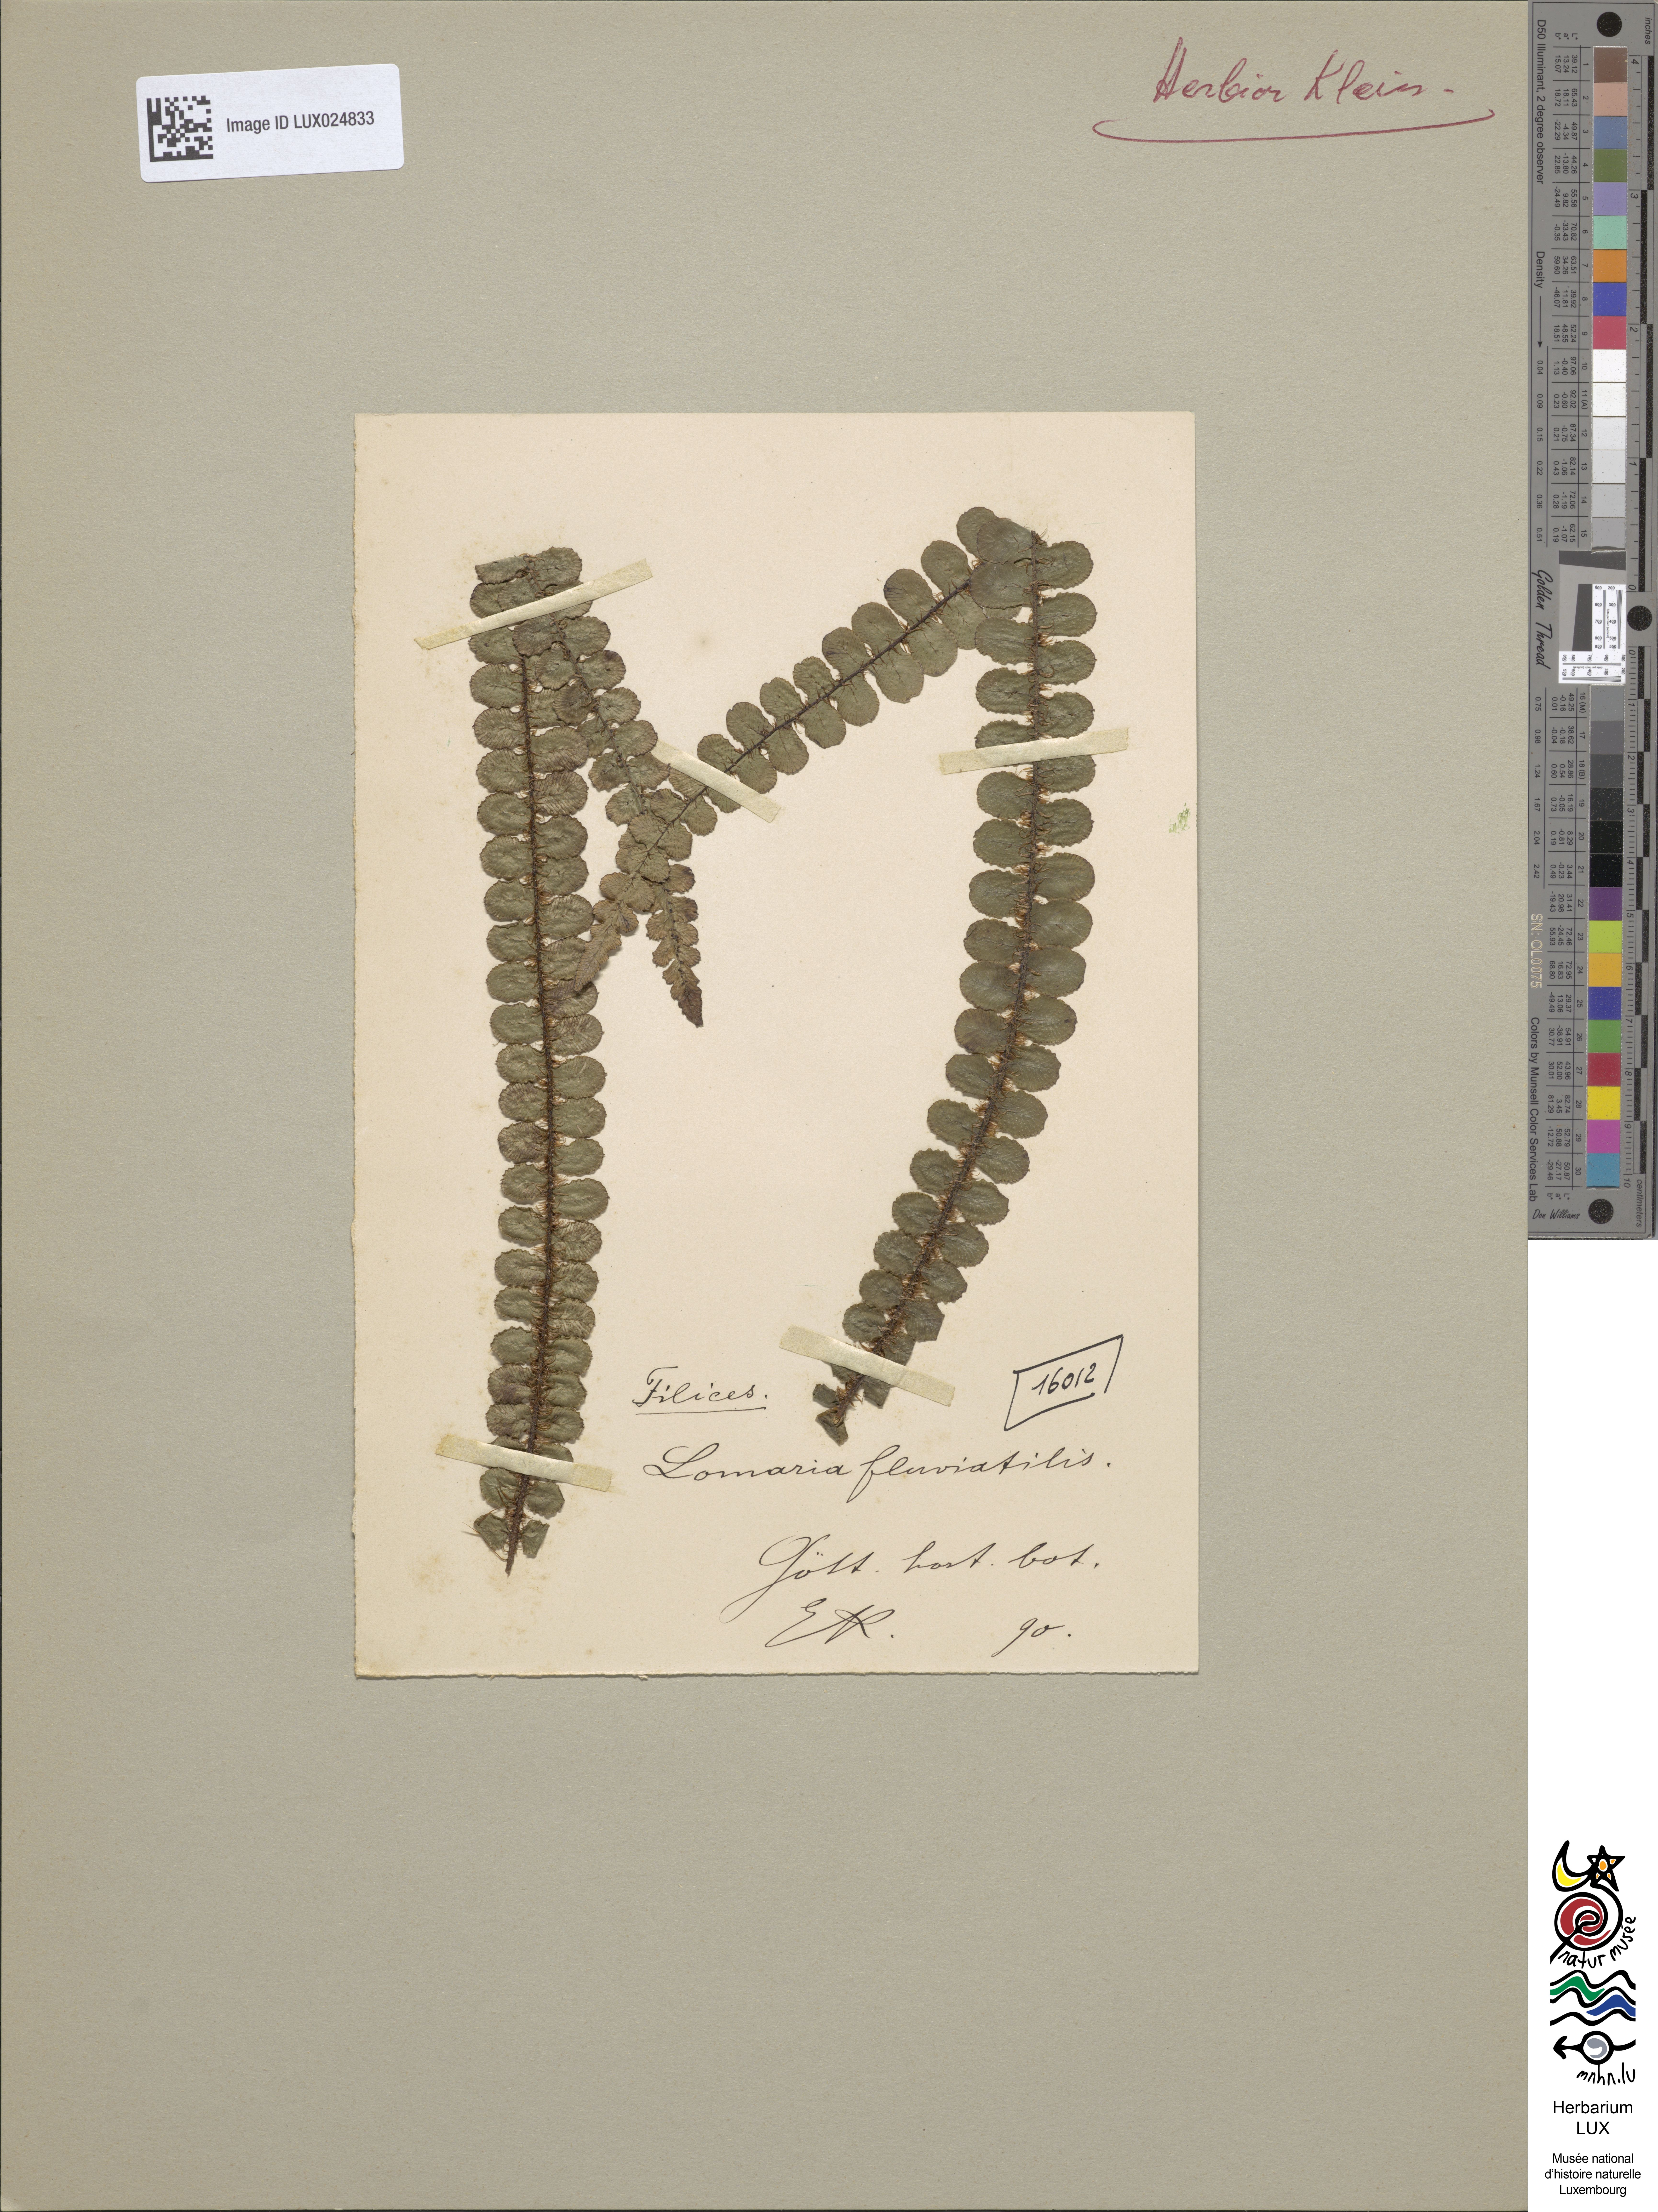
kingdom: Plantae
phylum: Tracheophyta
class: Polypodiopsida
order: Polypodiales
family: Blechnaceae
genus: Cranfillia
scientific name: Cranfillia fluviatilis
